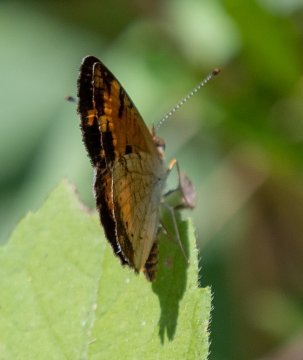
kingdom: Animalia
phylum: Arthropoda
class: Insecta
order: Lepidoptera
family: Nymphalidae
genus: Phyciodes
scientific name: Phyciodes tharos
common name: Pearl Crescent
